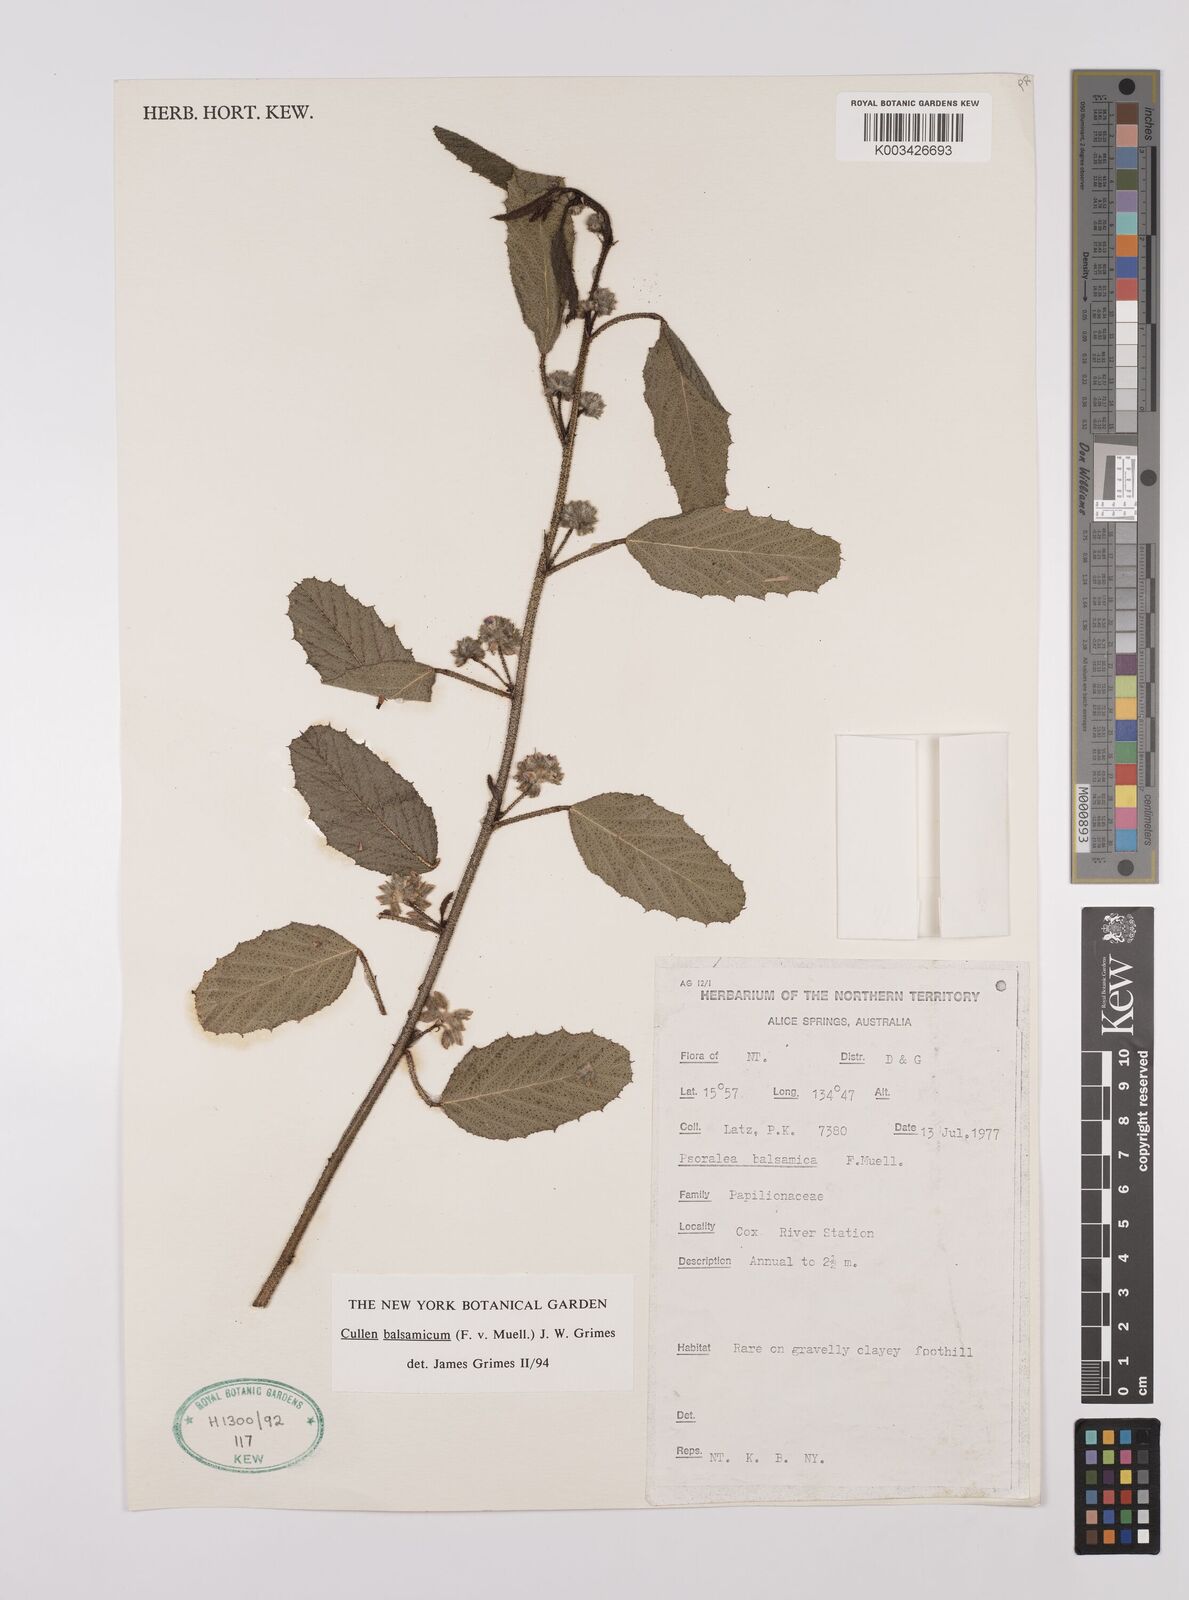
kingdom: Plantae
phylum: Tracheophyta
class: Magnoliopsida
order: Fabales
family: Fabaceae
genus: Cullen
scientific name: Cullen balsamicum
